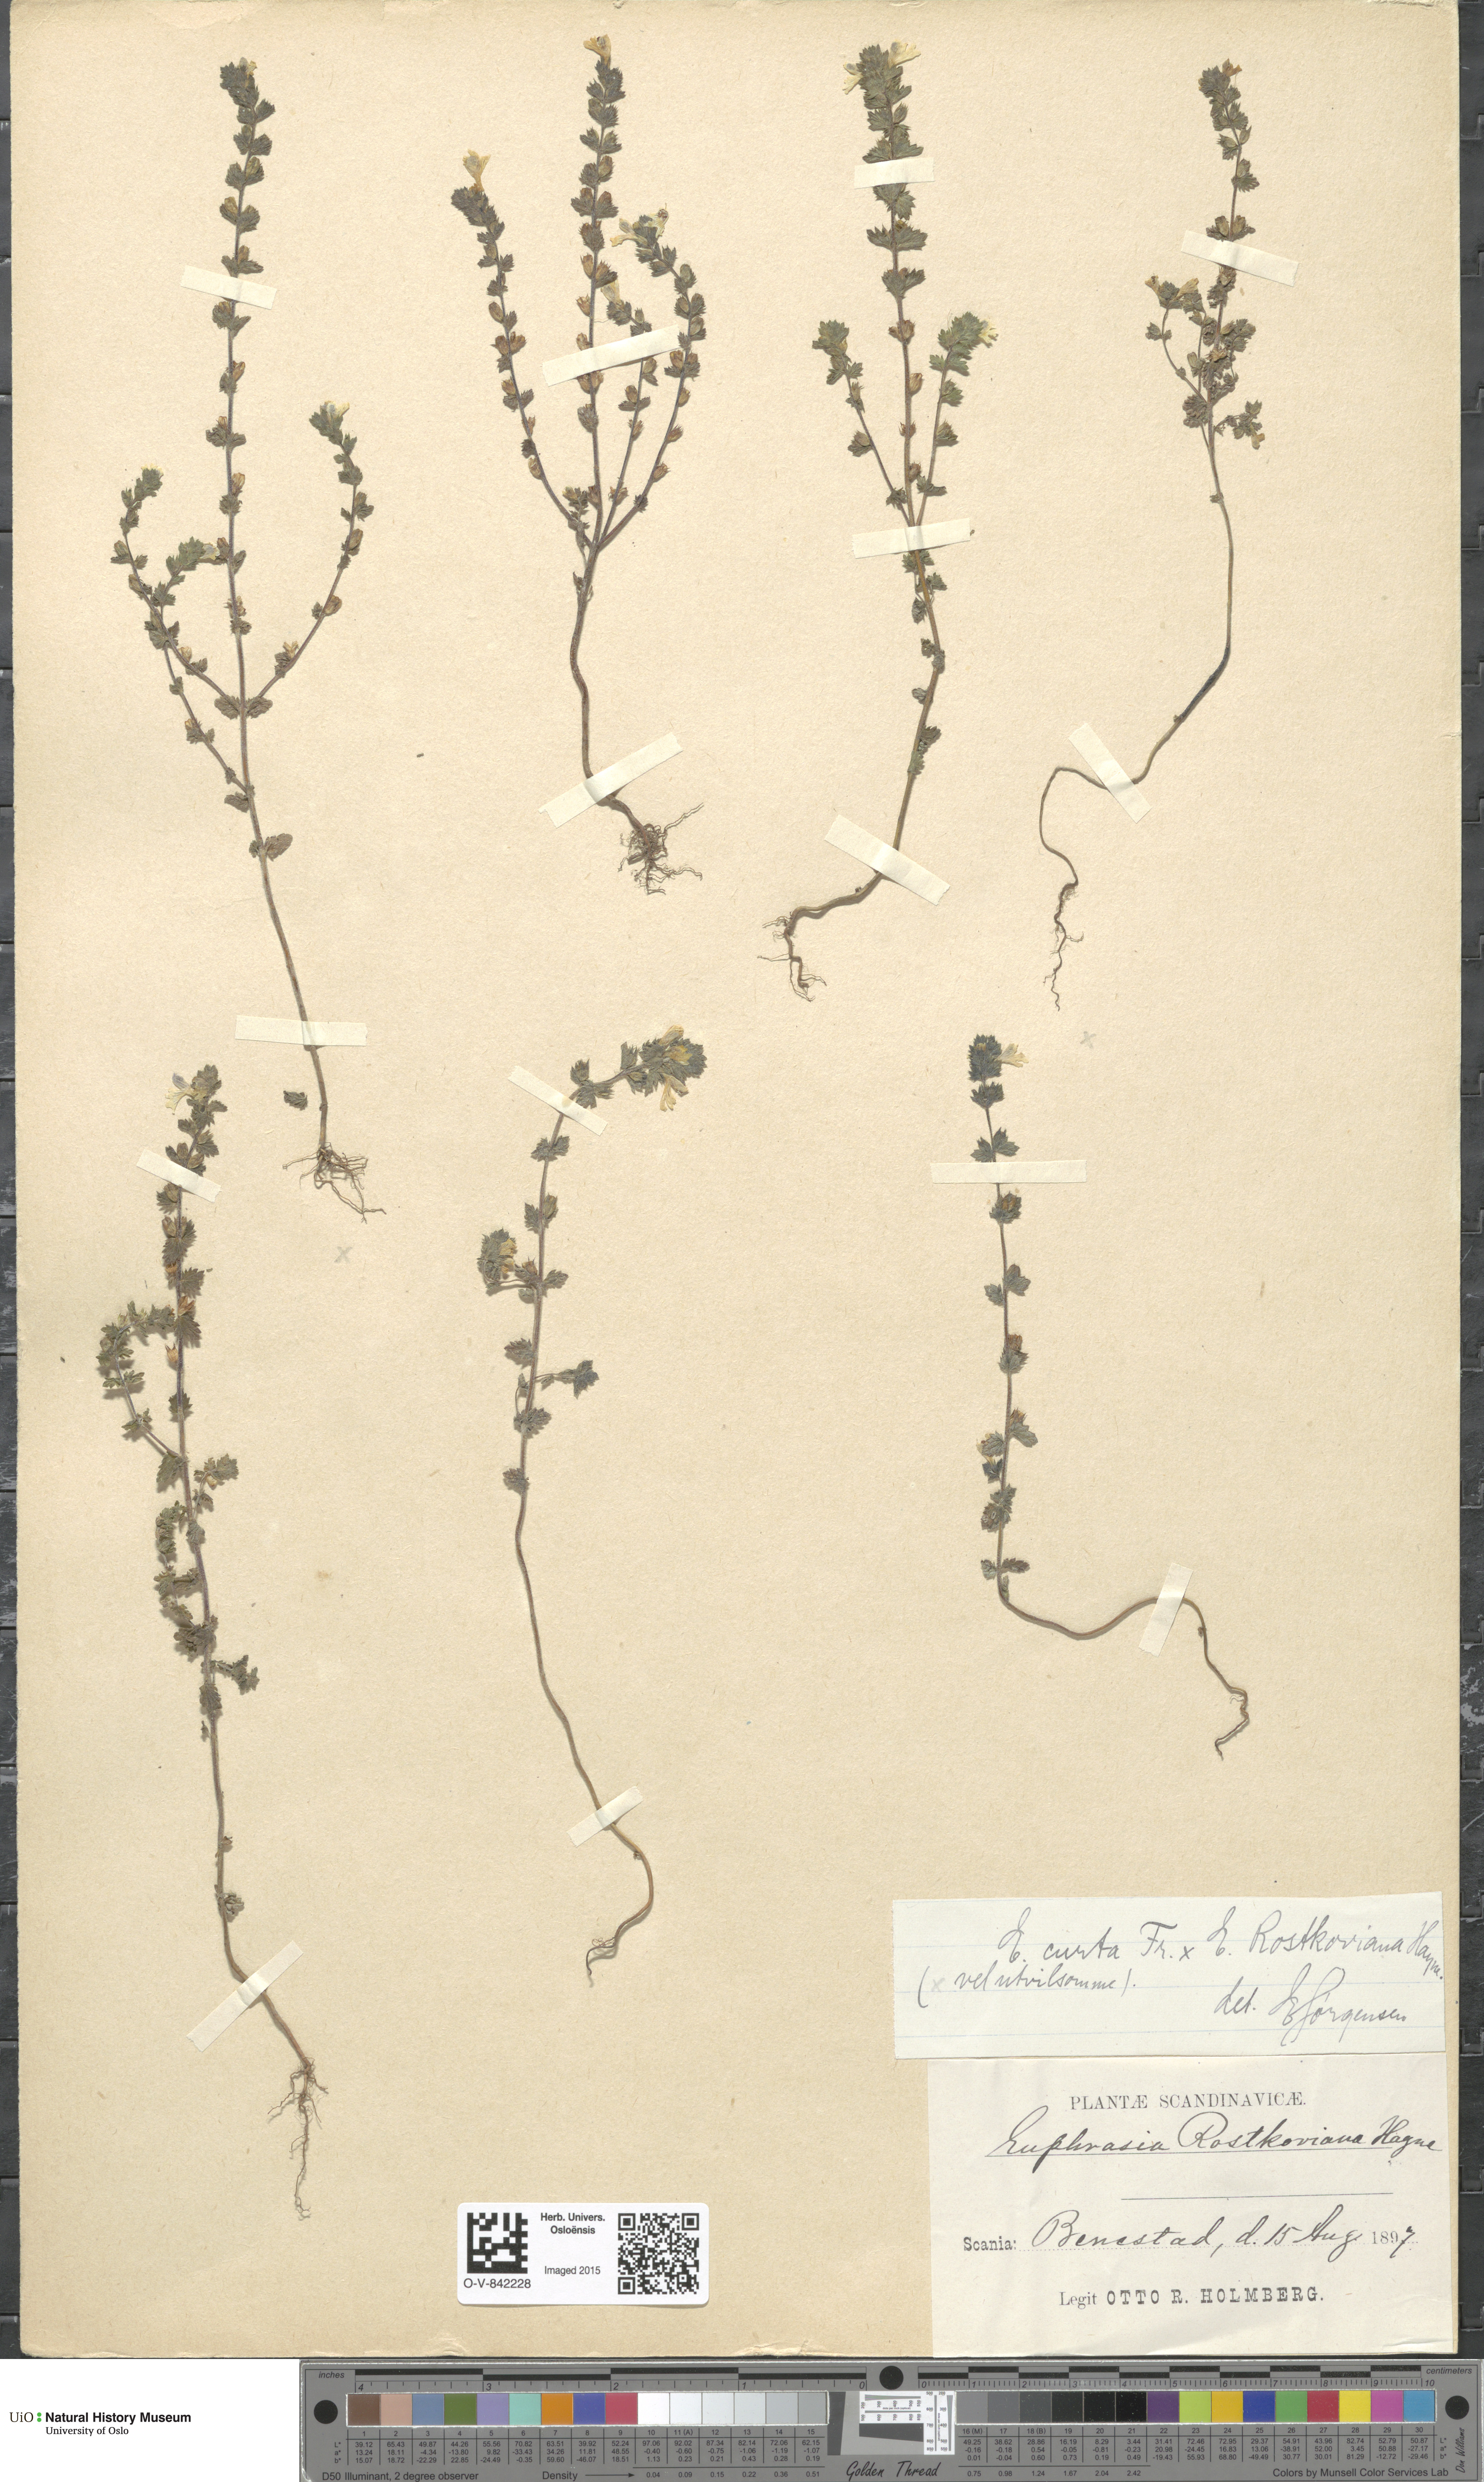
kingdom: Plantae
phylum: Tracheophyta
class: Magnoliopsida
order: Lamiales
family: Orobanchaceae
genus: Euphrasia
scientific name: Euphrasia
